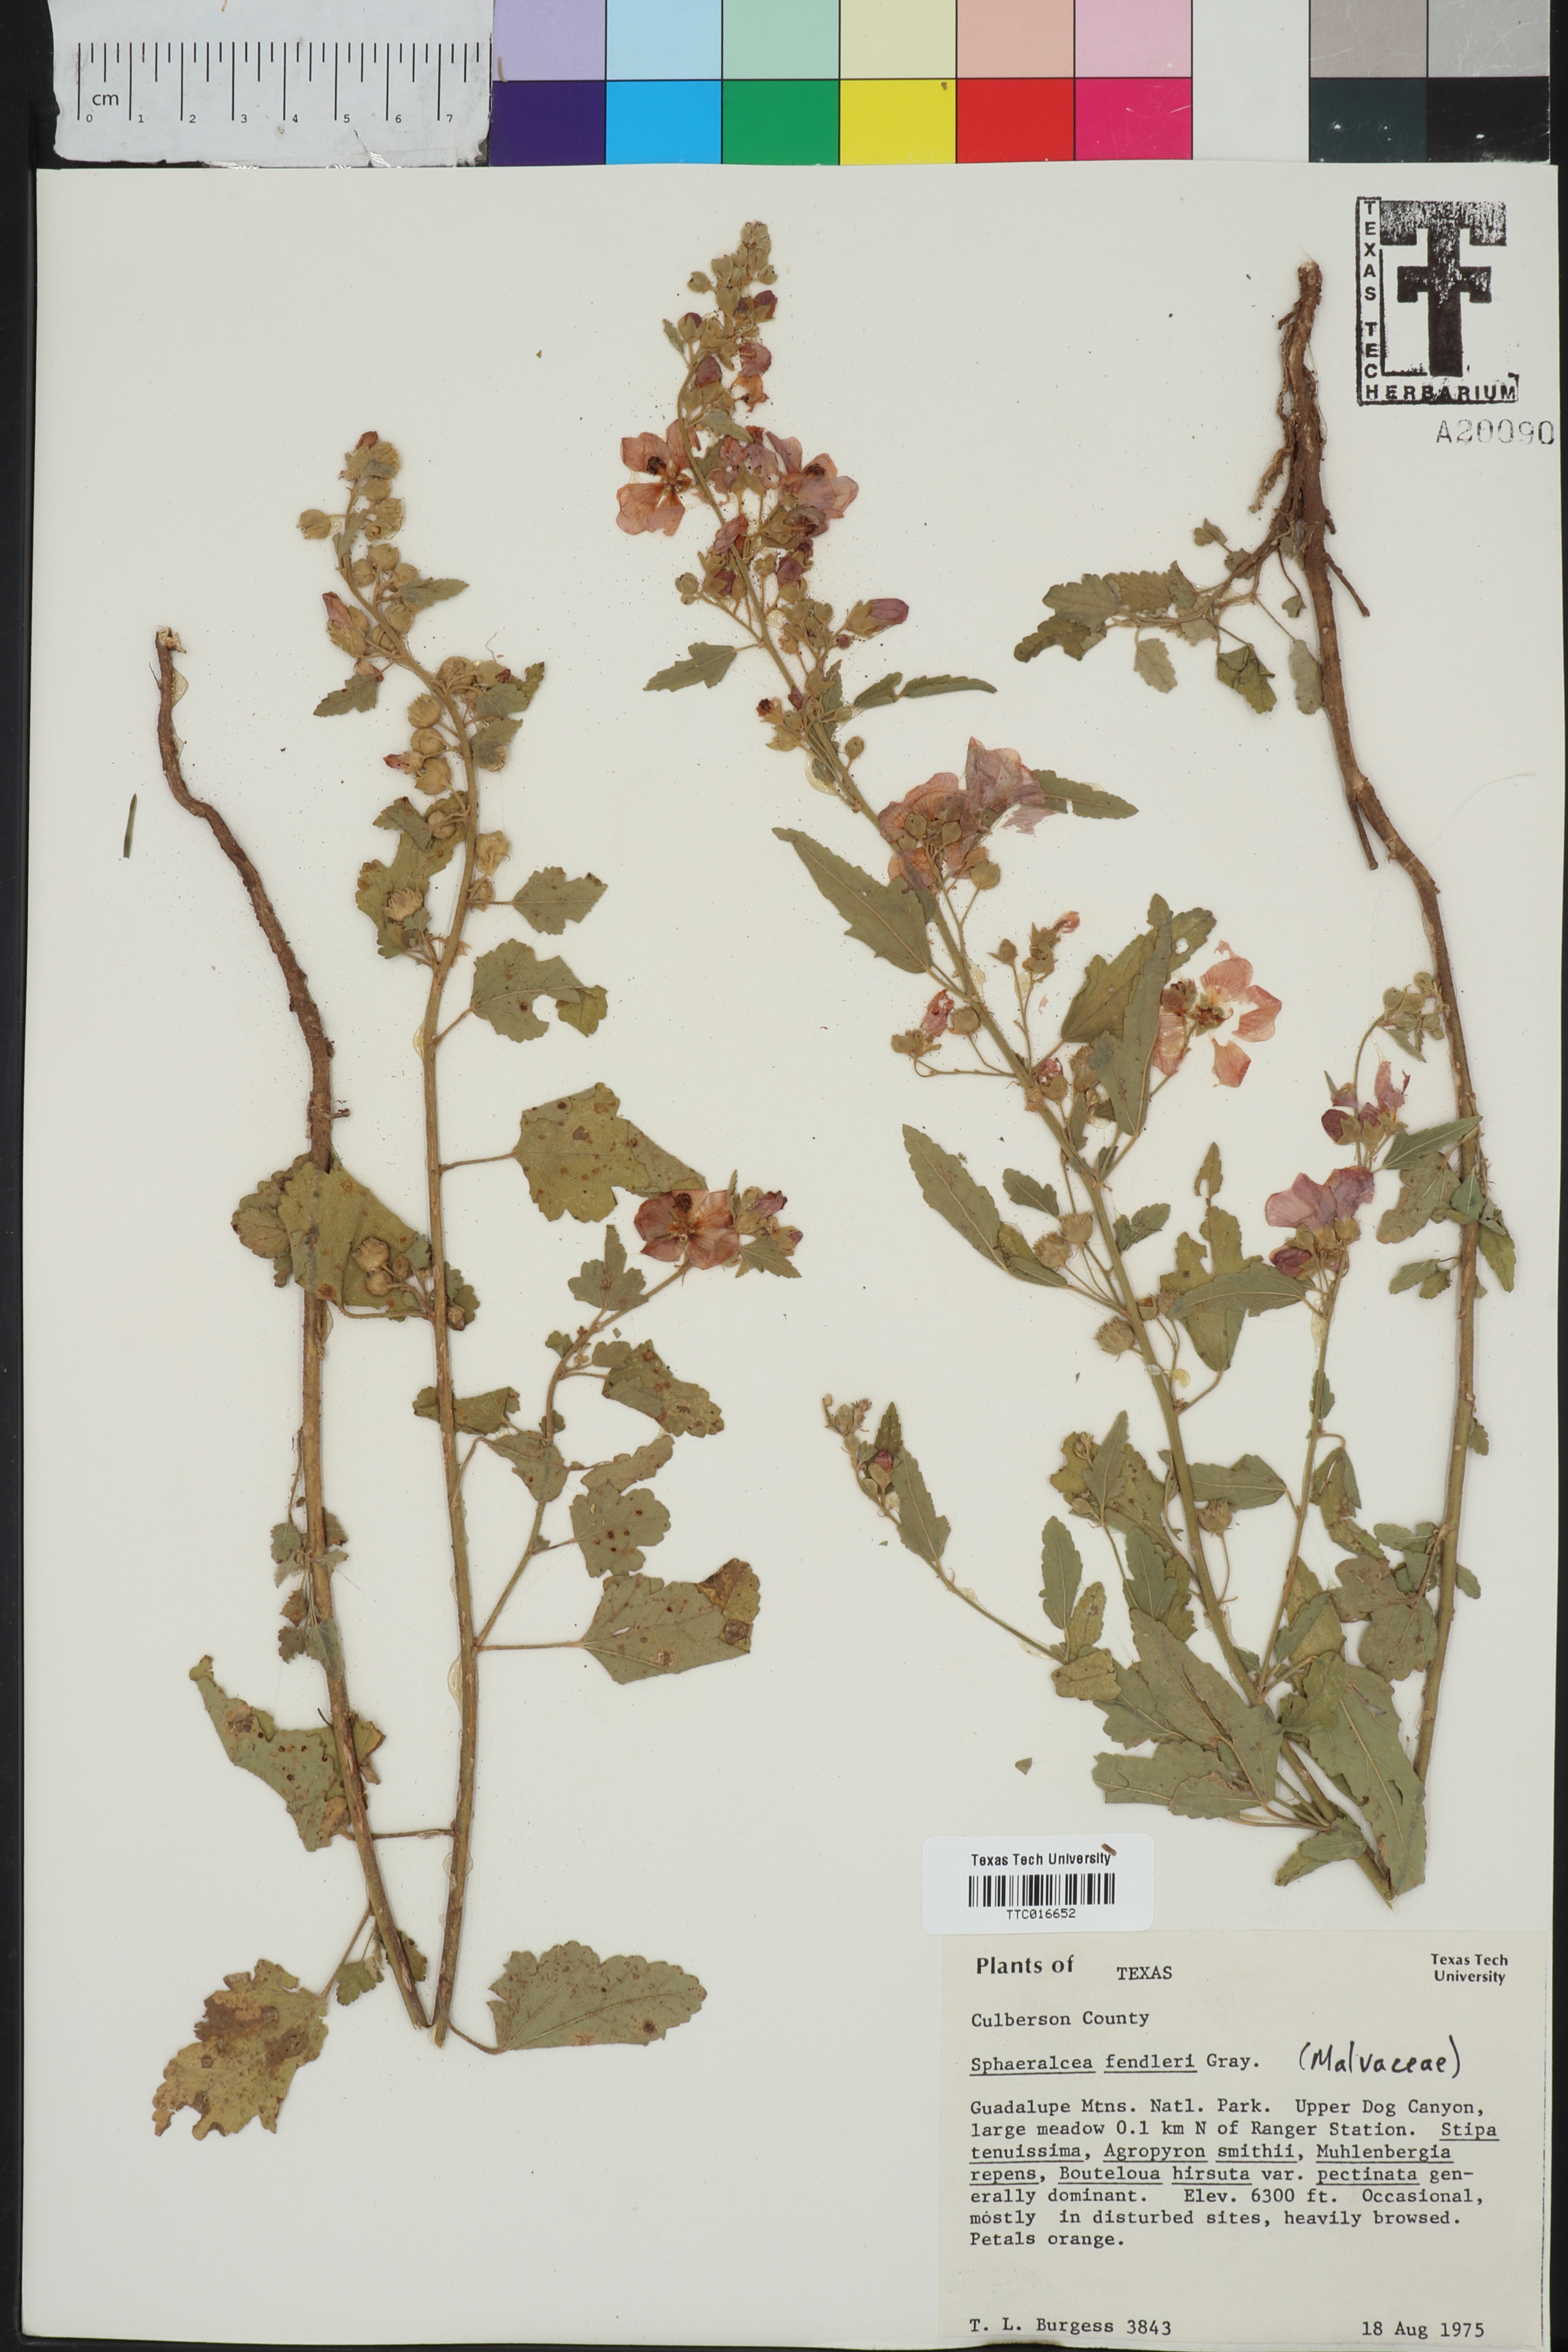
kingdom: Plantae
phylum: Tracheophyta
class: Magnoliopsida
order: Malvales
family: Malvaceae
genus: Sphaeralcea
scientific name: Sphaeralcea fendleri
